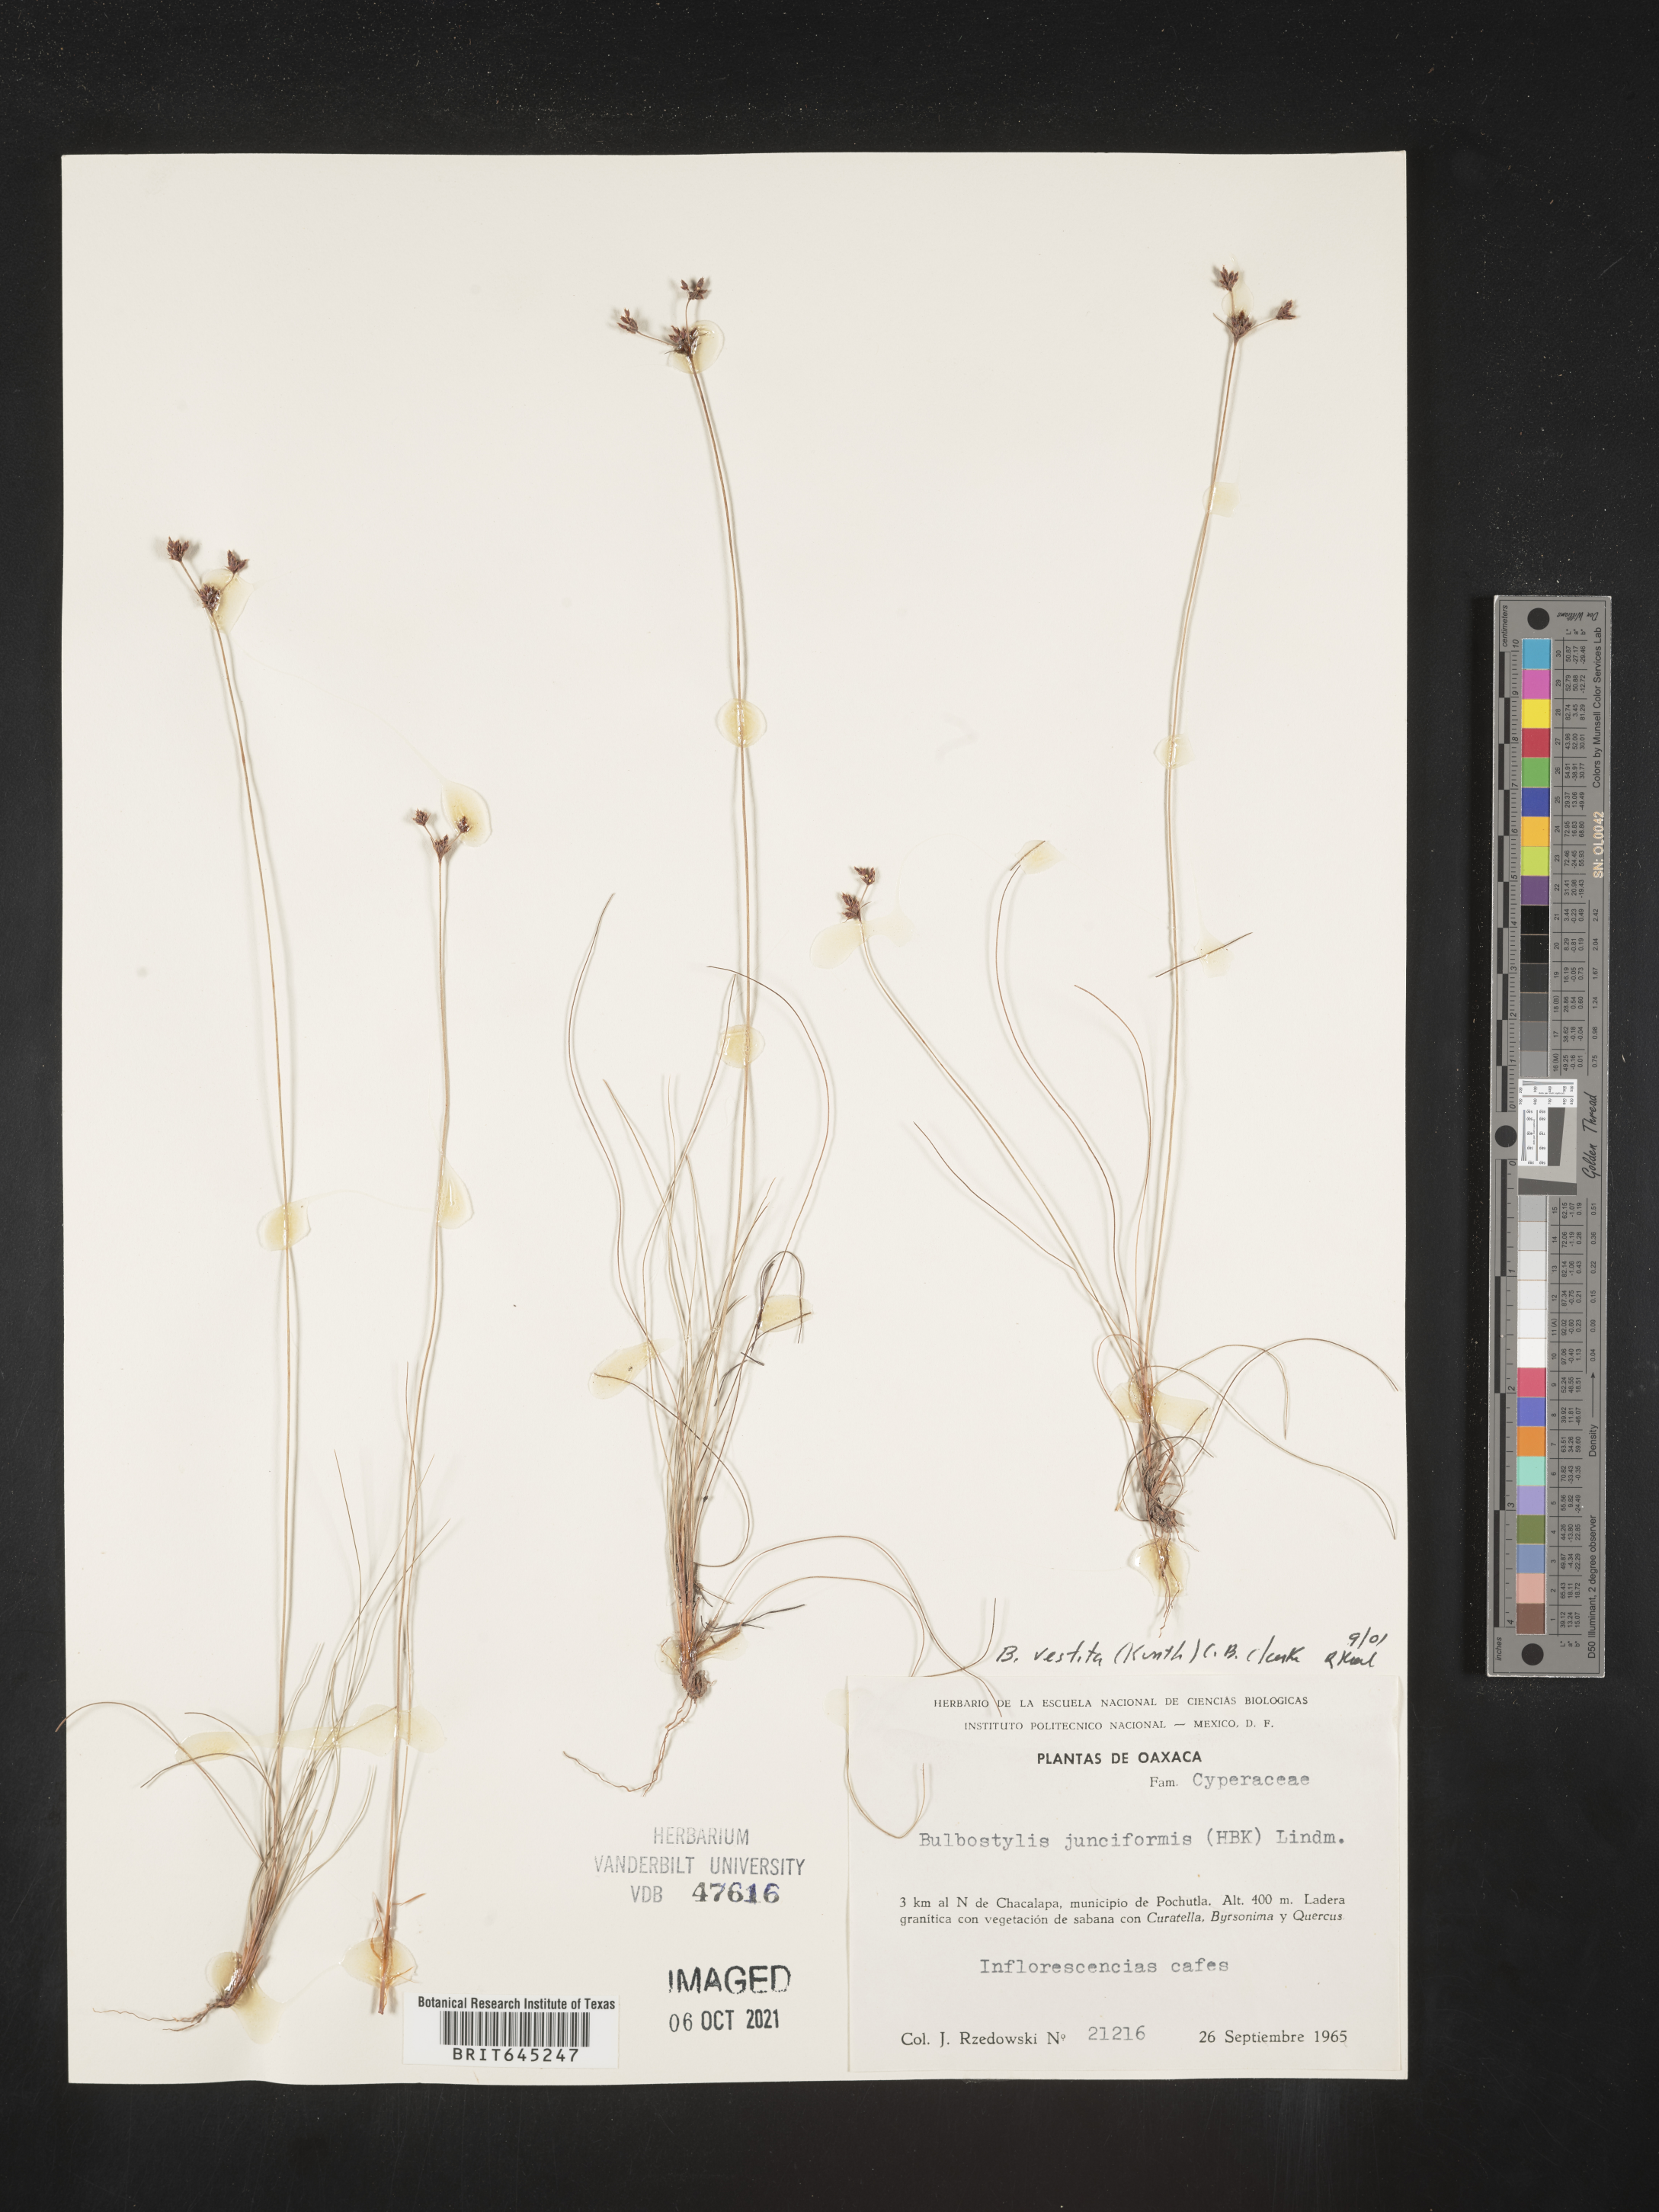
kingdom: Plantae
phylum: Tracheophyta
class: Liliopsida
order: Poales
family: Cyperaceae
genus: Bulbostylis
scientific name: Bulbostylis vestita
